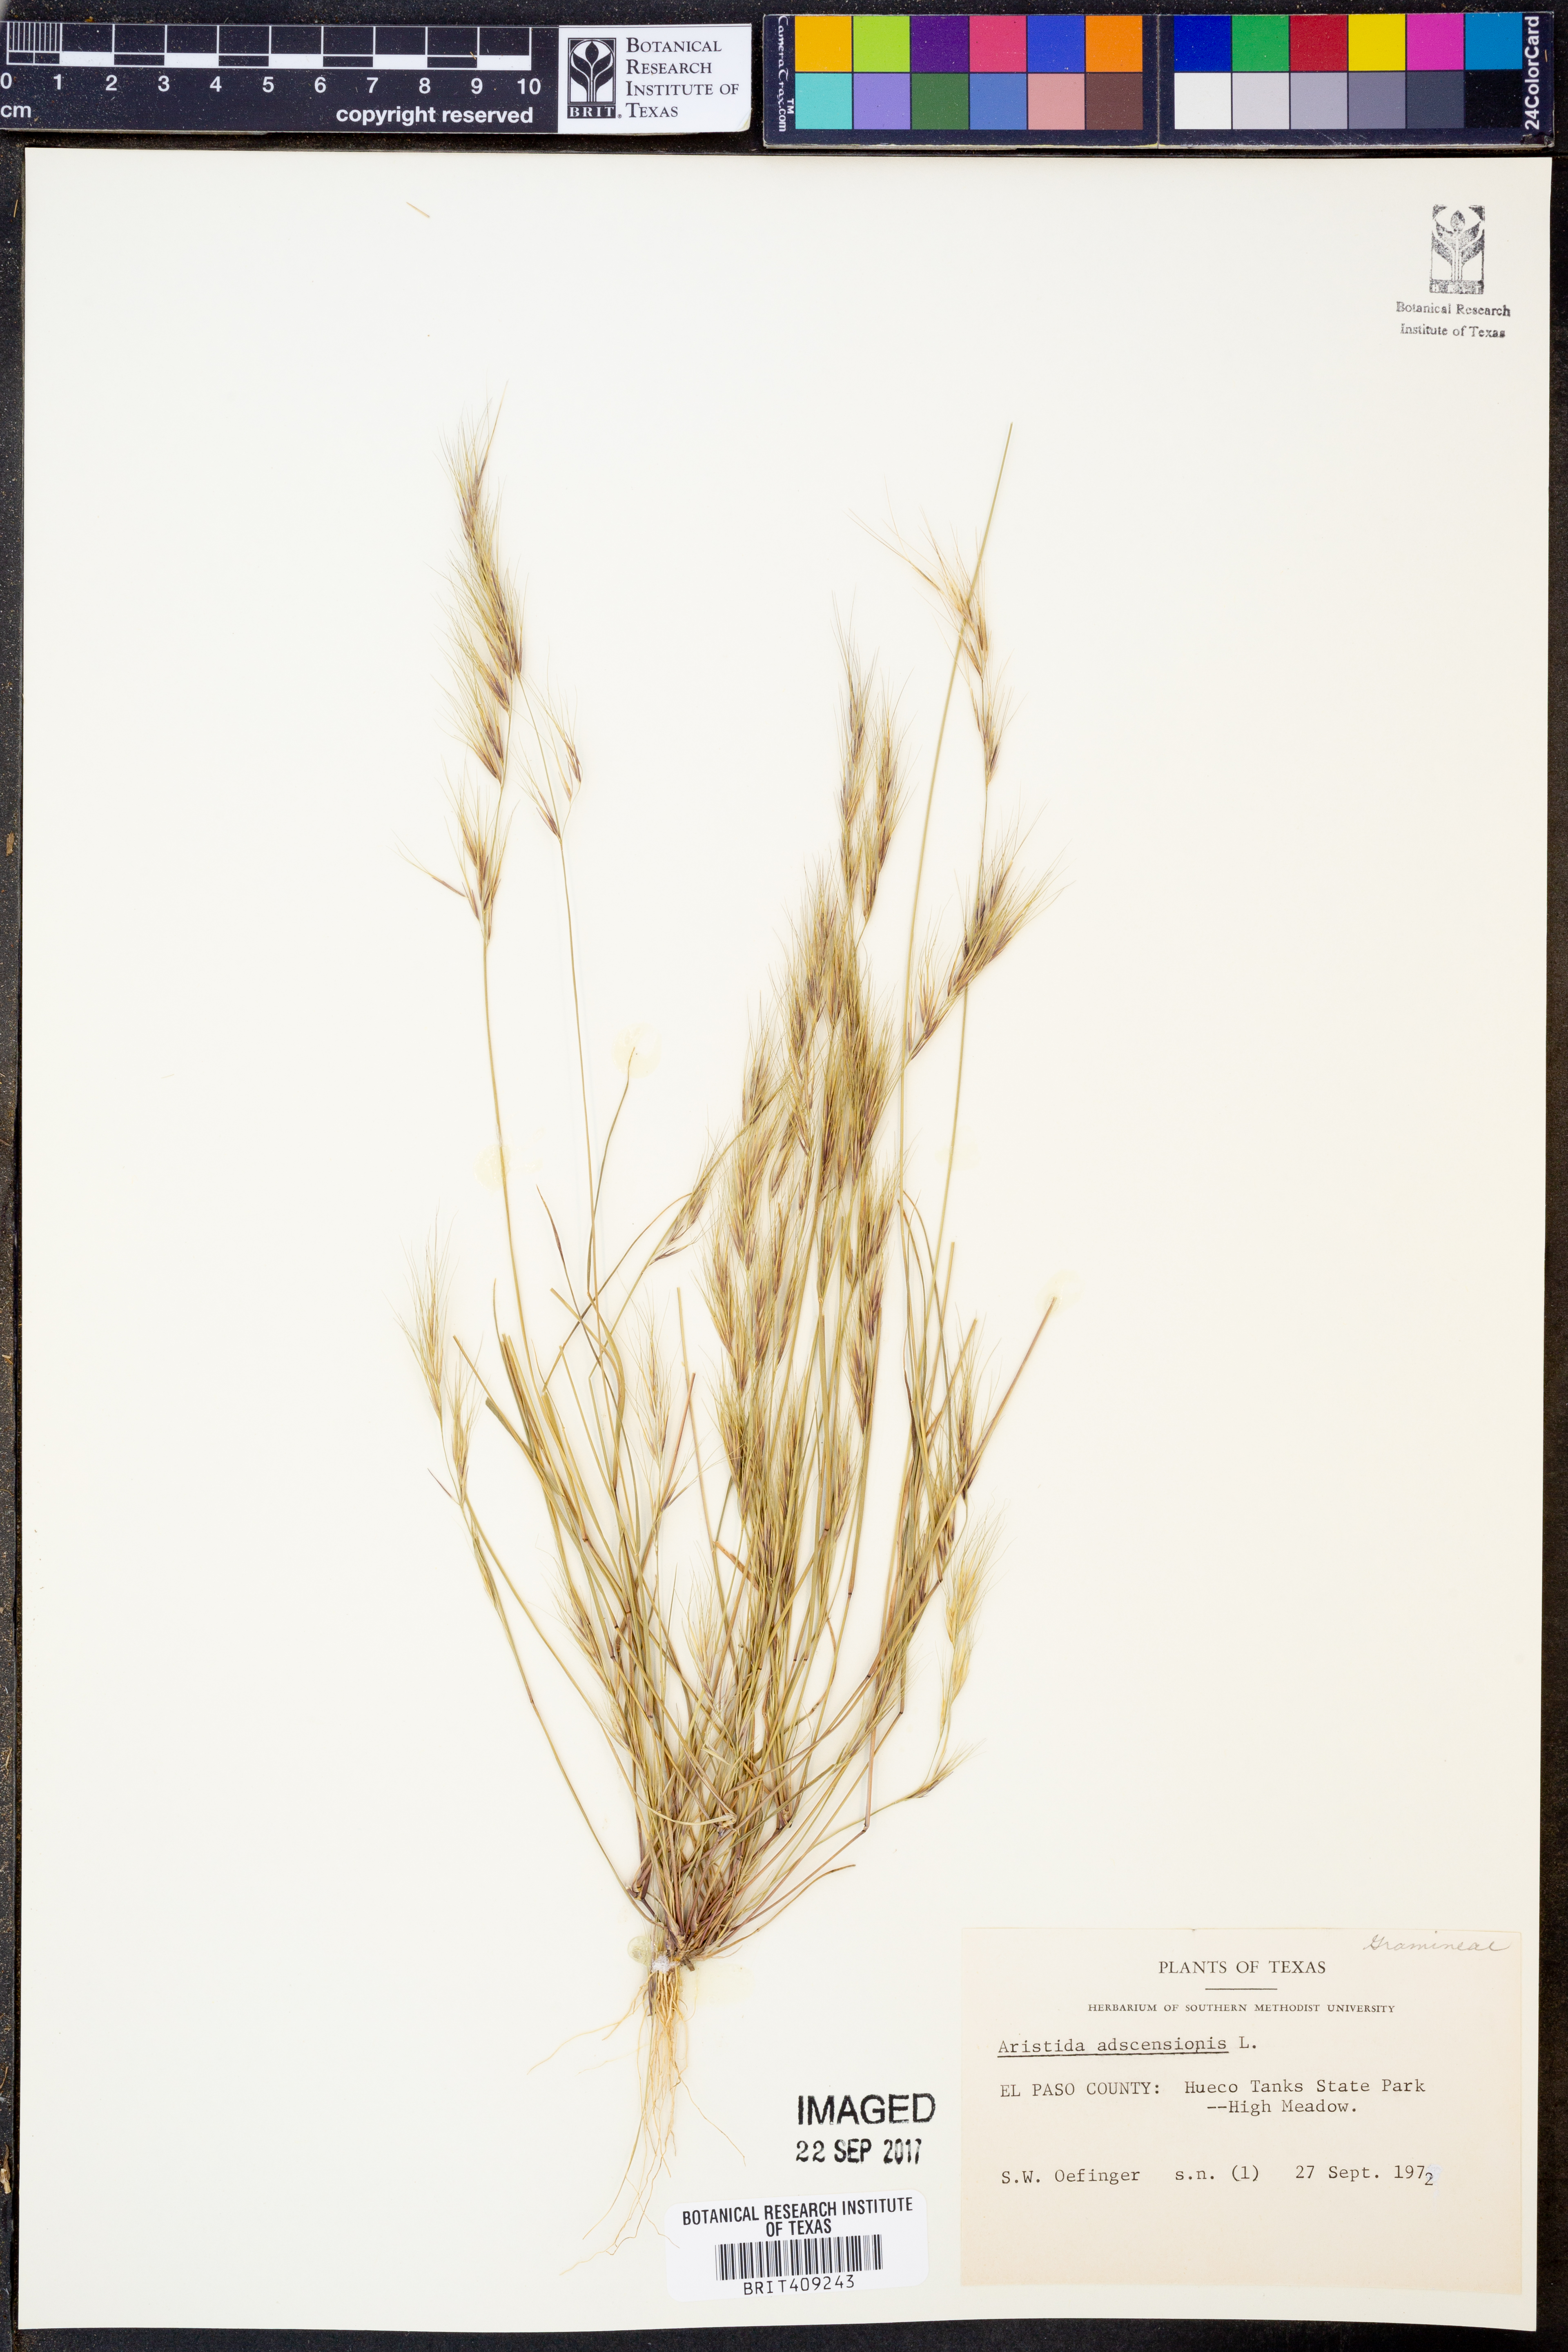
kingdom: Plantae
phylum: Tracheophyta
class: Liliopsida
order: Poales
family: Poaceae
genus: Aristida
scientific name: Aristida adscensionis
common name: Sixweeks threeawn
